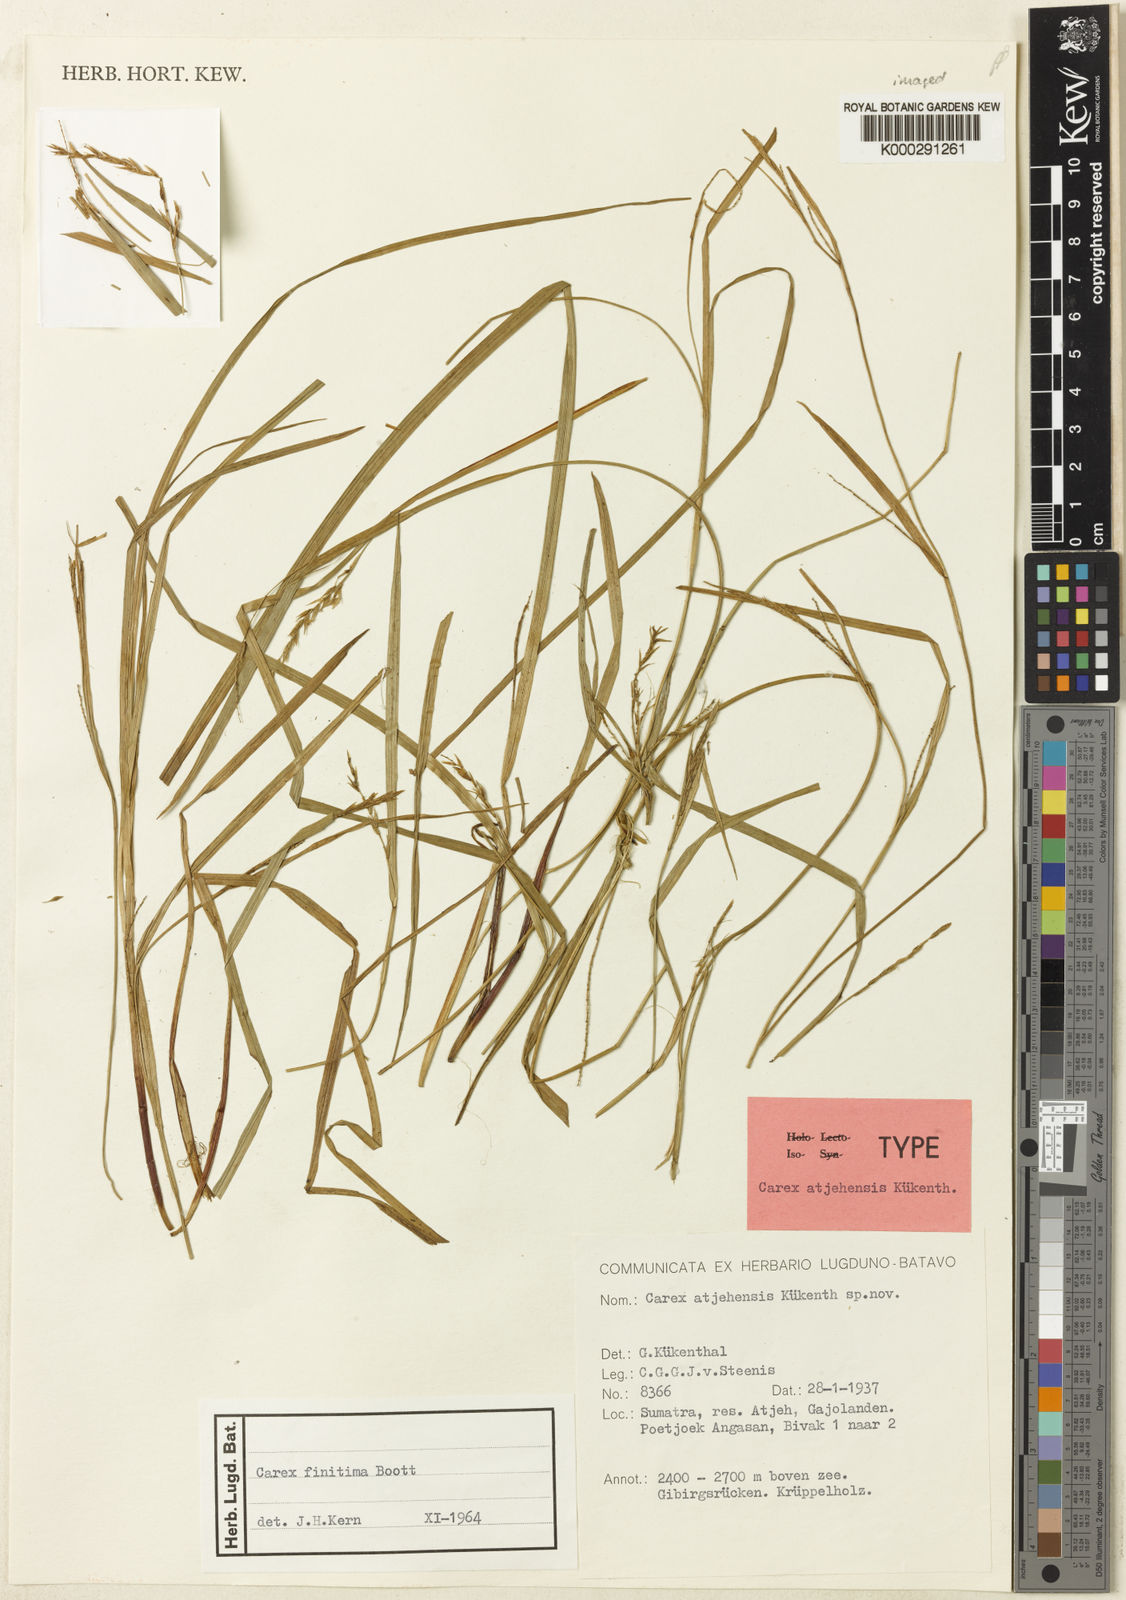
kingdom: Plantae
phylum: Tracheophyta
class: Liliopsida
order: Poales
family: Cyperaceae
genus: Carex
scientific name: Carex finitima
